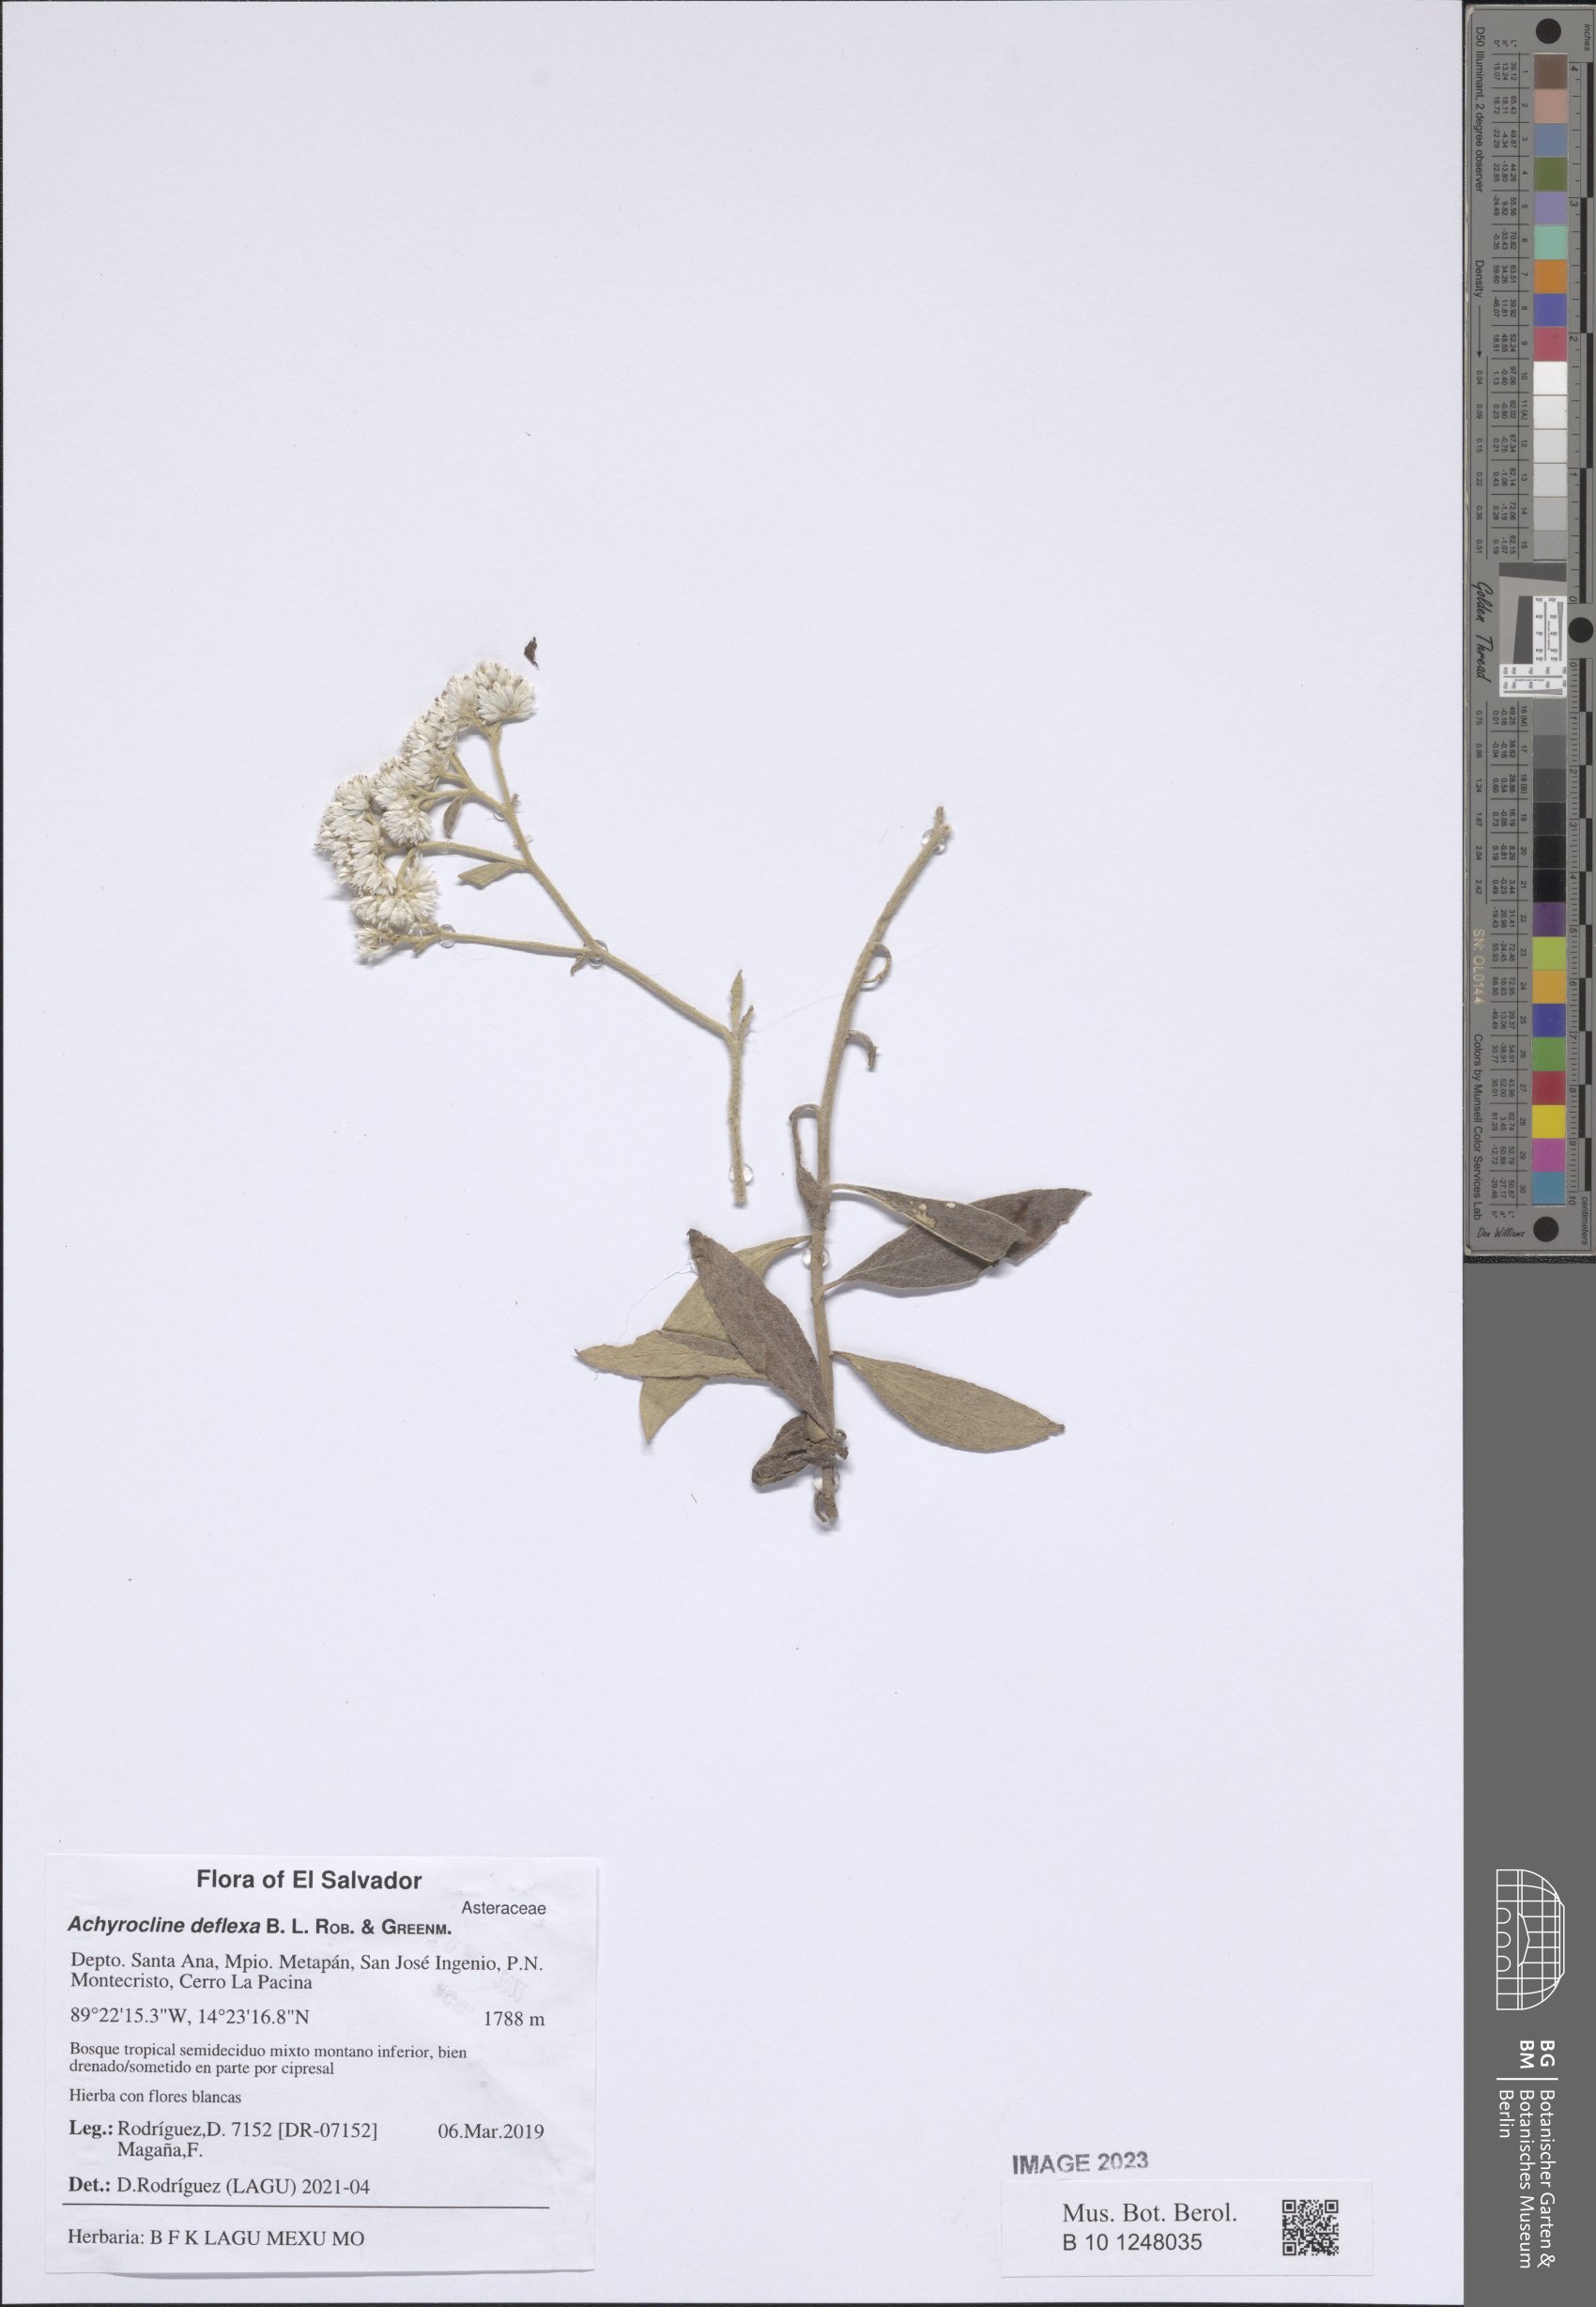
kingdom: Plantae
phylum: Tracheophyta
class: Magnoliopsida
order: Asterales
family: Asteraceae
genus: Achyrocline
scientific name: Achyrocline deflexa
